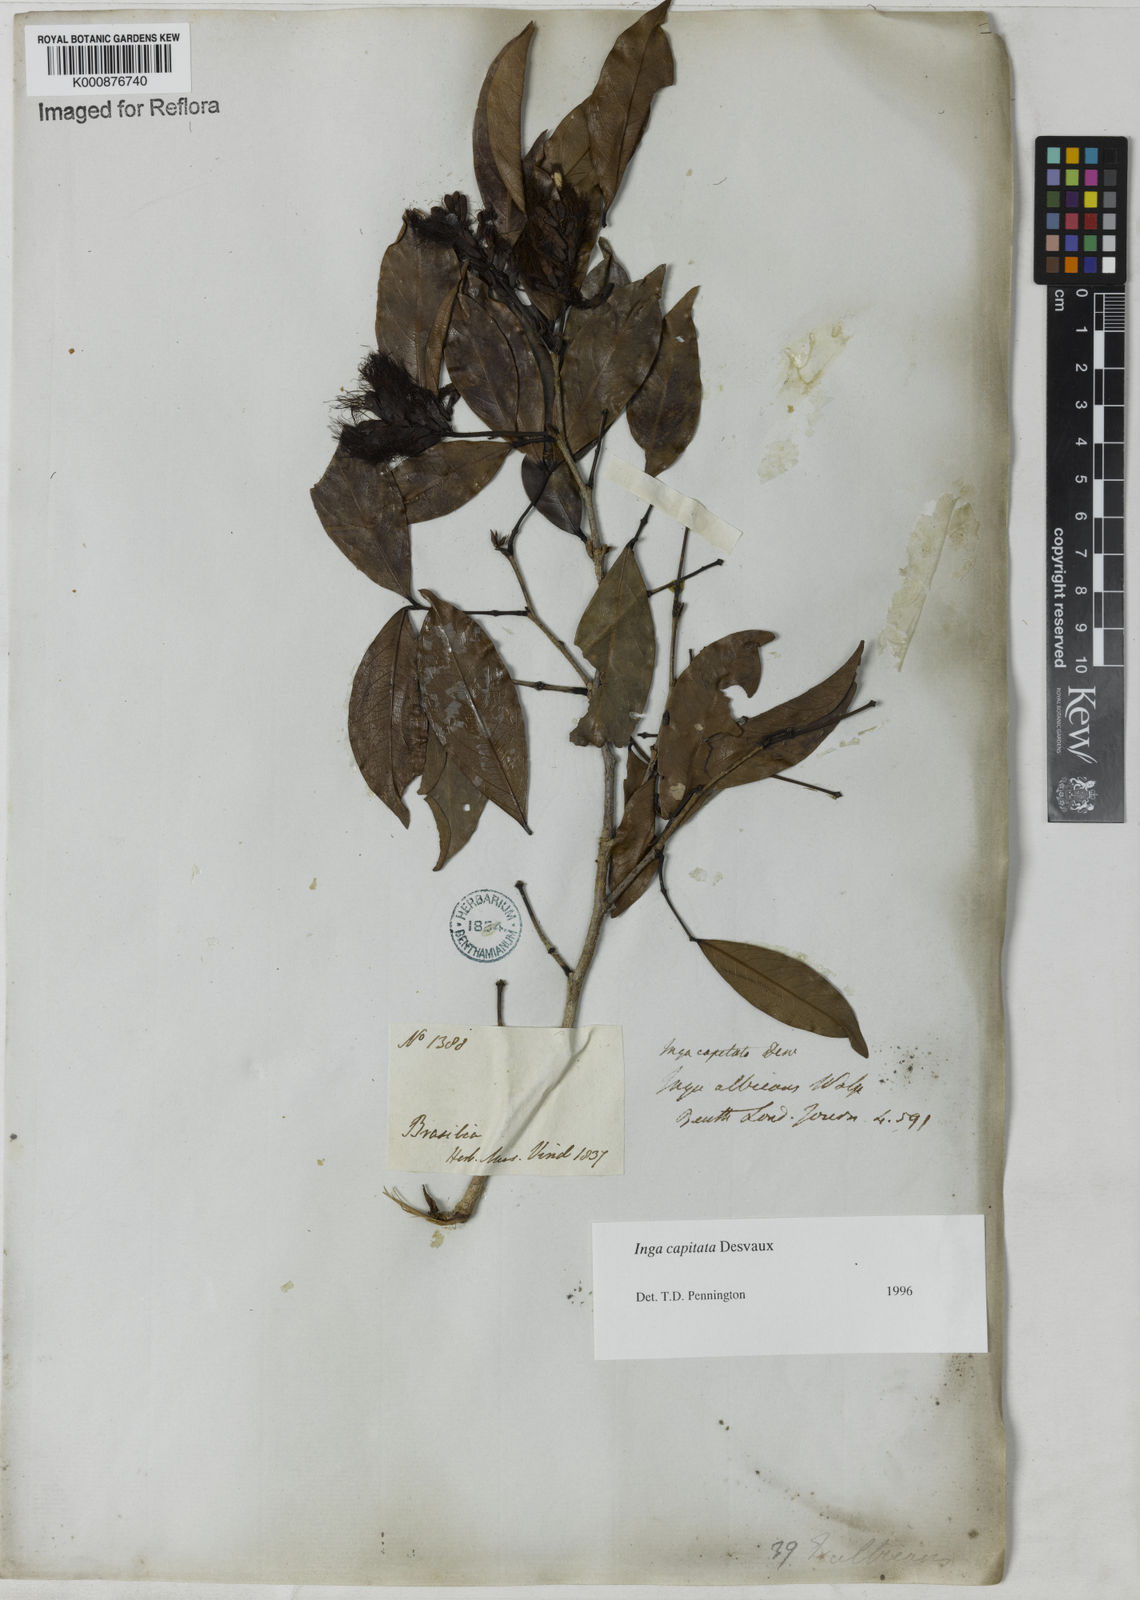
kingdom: Plantae
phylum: Tracheophyta
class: Magnoliopsida
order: Fabales
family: Fabaceae
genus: Inga
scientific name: Inga capitata
